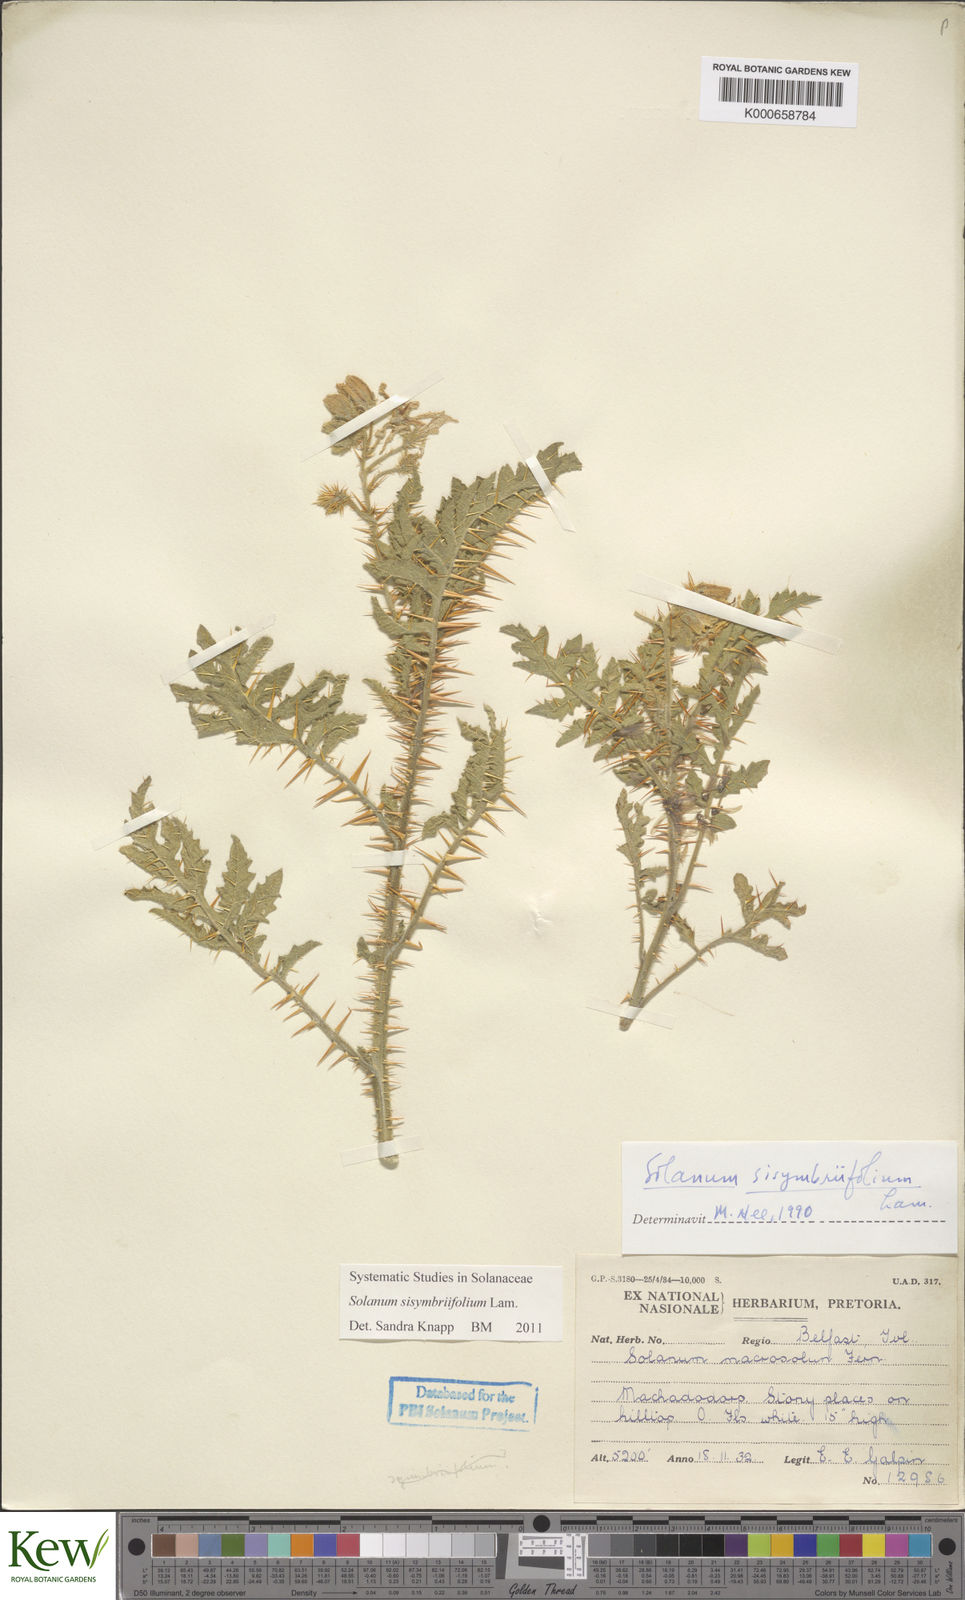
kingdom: Plantae
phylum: Tracheophyta
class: Magnoliopsida
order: Solanales
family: Solanaceae
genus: Solanum
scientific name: Solanum sisymbriifolium
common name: Red buffalo-bur
